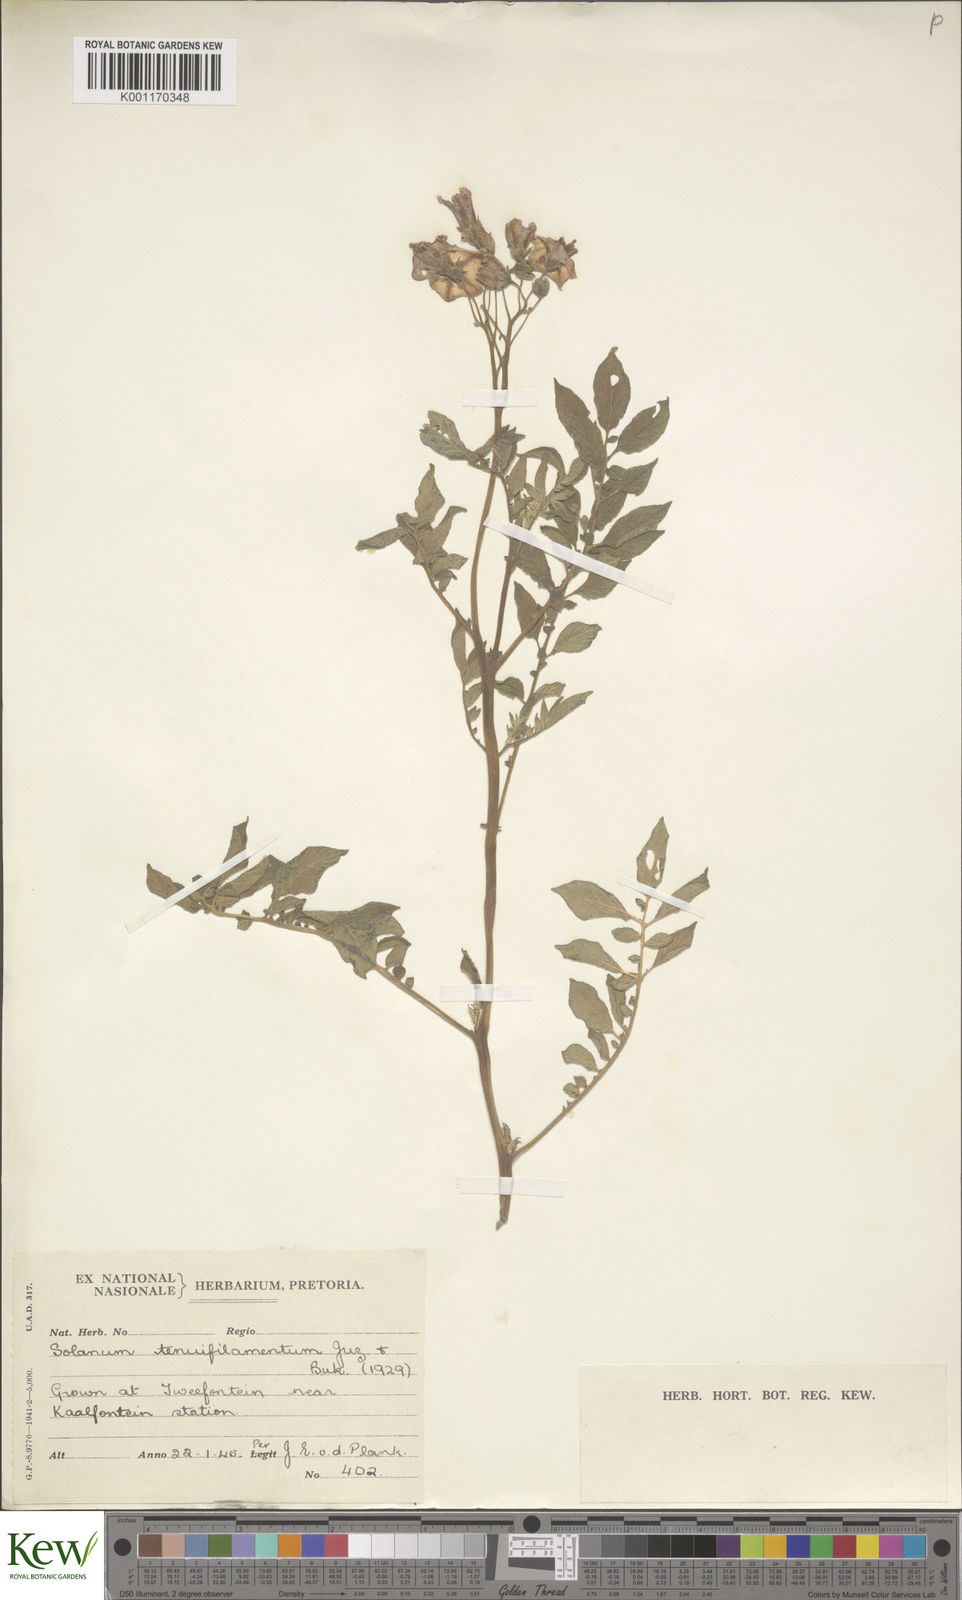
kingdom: Plantae
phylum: Tracheophyta
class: Magnoliopsida
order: Solanales
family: Solanaceae
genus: Solanum
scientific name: Solanum
